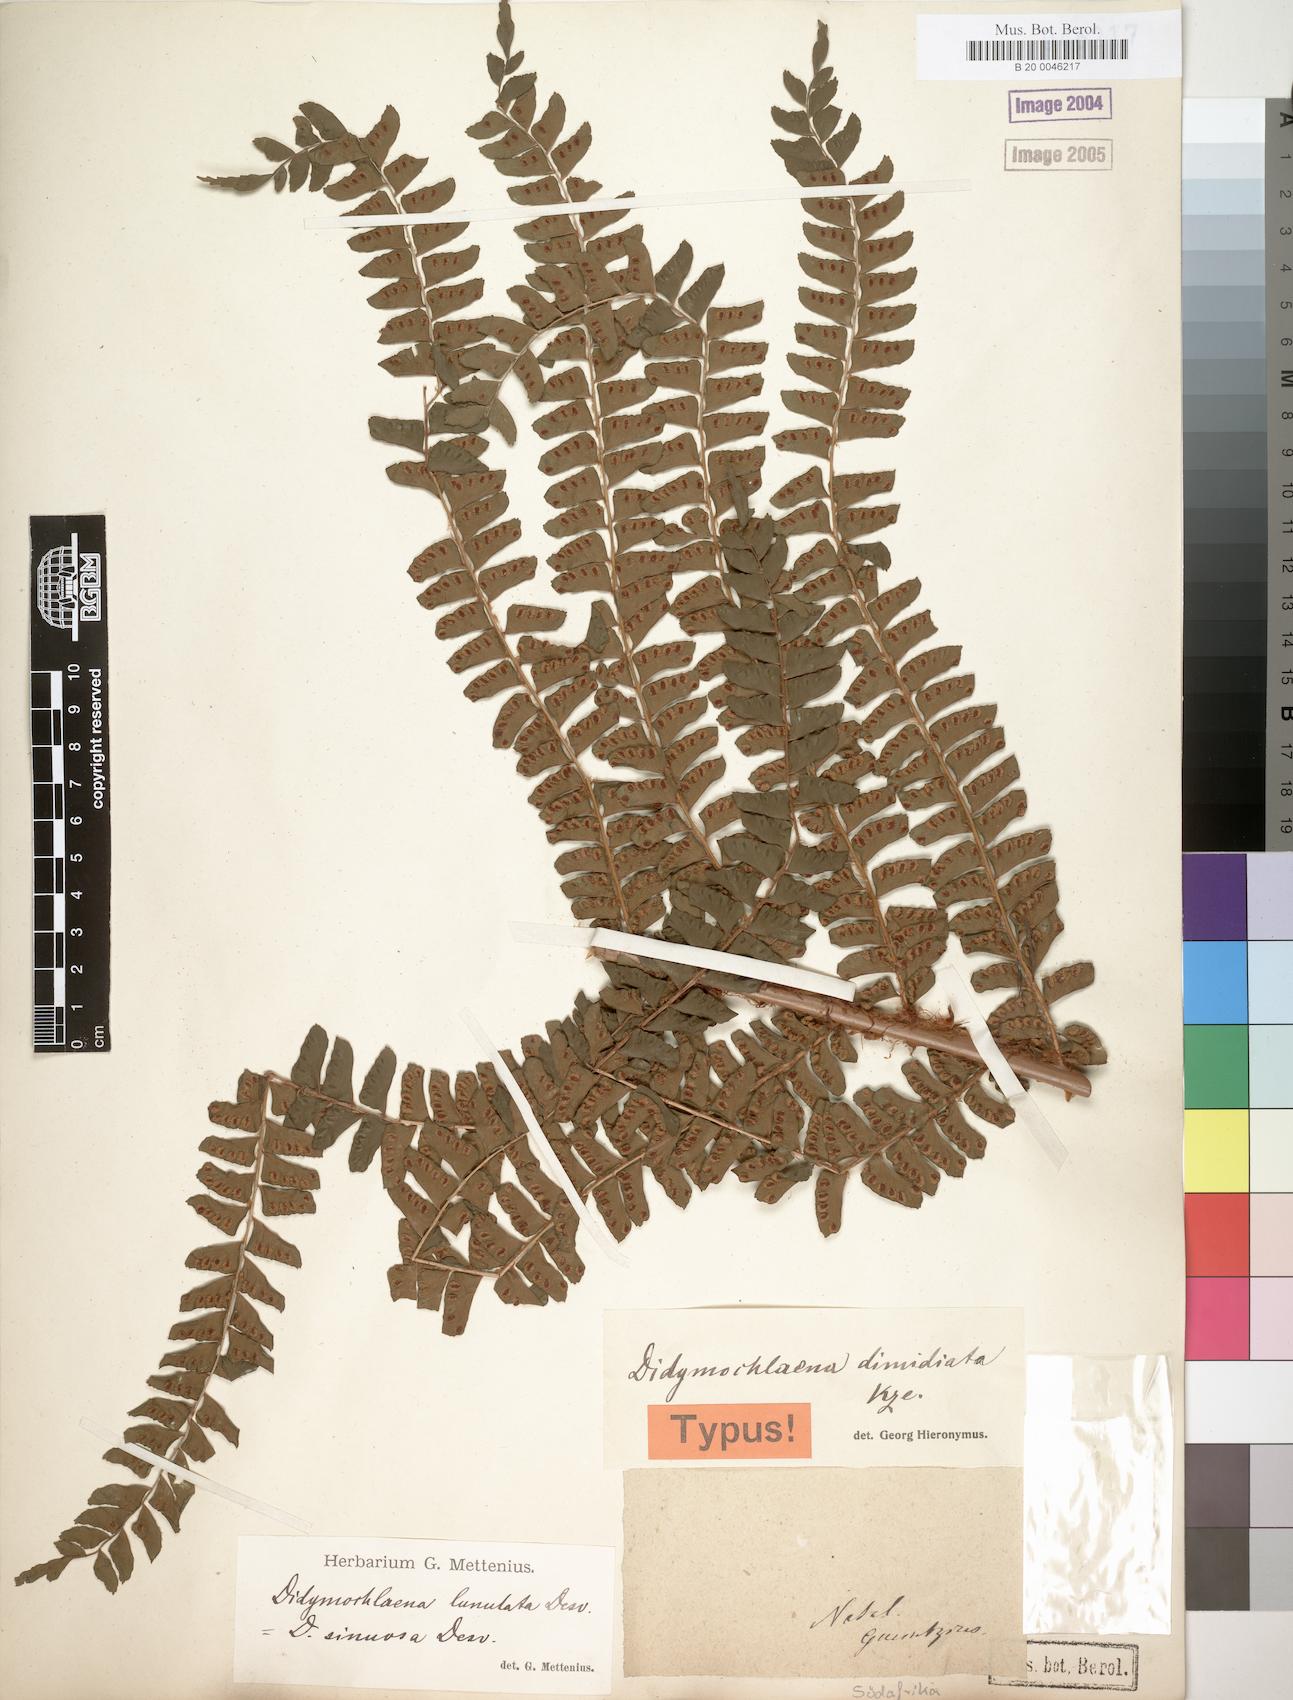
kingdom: Plantae
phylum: Tracheophyta
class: Polypodiopsida
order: Polypodiales
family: Didymochlaenaceae
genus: Didymochlaena
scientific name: Didymochlaena truncatula
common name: Mahogany fern
